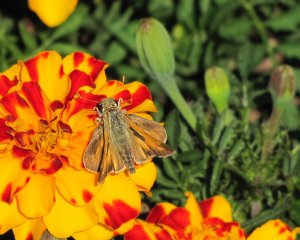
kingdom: Animalia
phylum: Arthropoda
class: Insecta
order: Lepidoptera
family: Hesperiidae
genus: Atalopedes
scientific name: Atalopedes campestris
